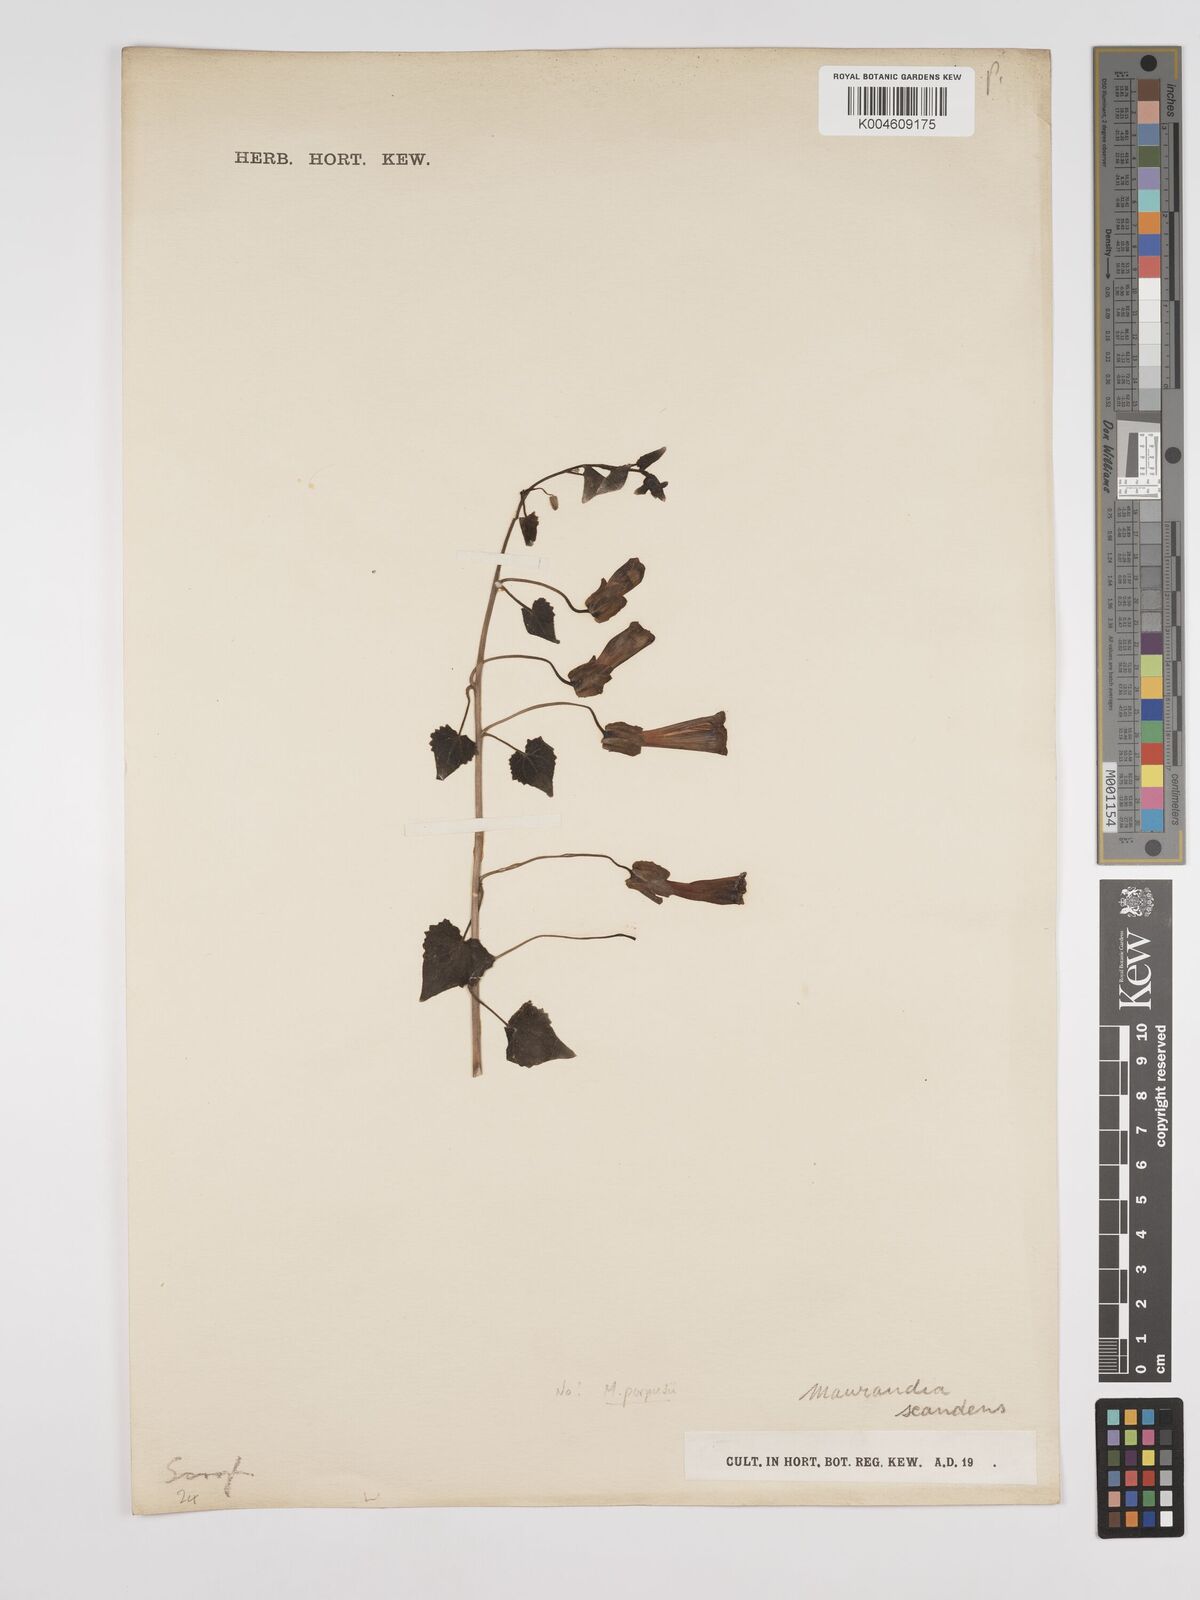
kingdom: Plantae
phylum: Tracheophyta
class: Magnoliopsida
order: Lamiales
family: Plantaginaceae
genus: Maurandya
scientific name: Maurandya scandens
